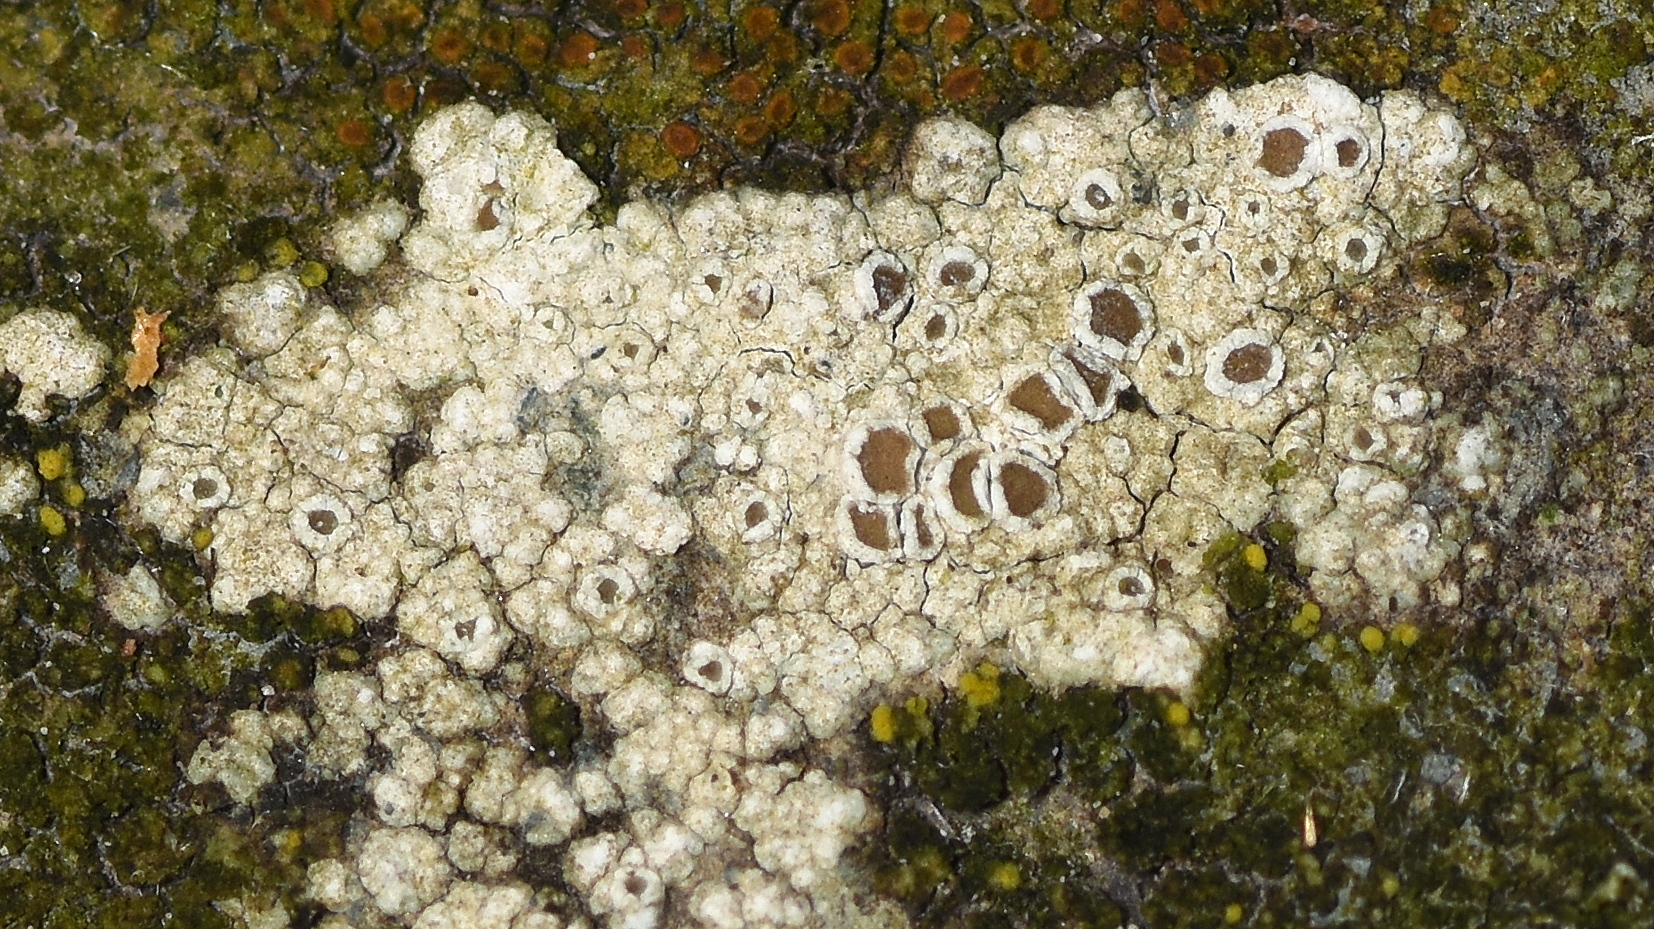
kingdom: Fungi
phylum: Ascomycota
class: Lecanoromycetes
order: Lecanorales
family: Lecanoraceae
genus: Polyozosia
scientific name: Polyozosia albescens
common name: cement-kantskivelav
